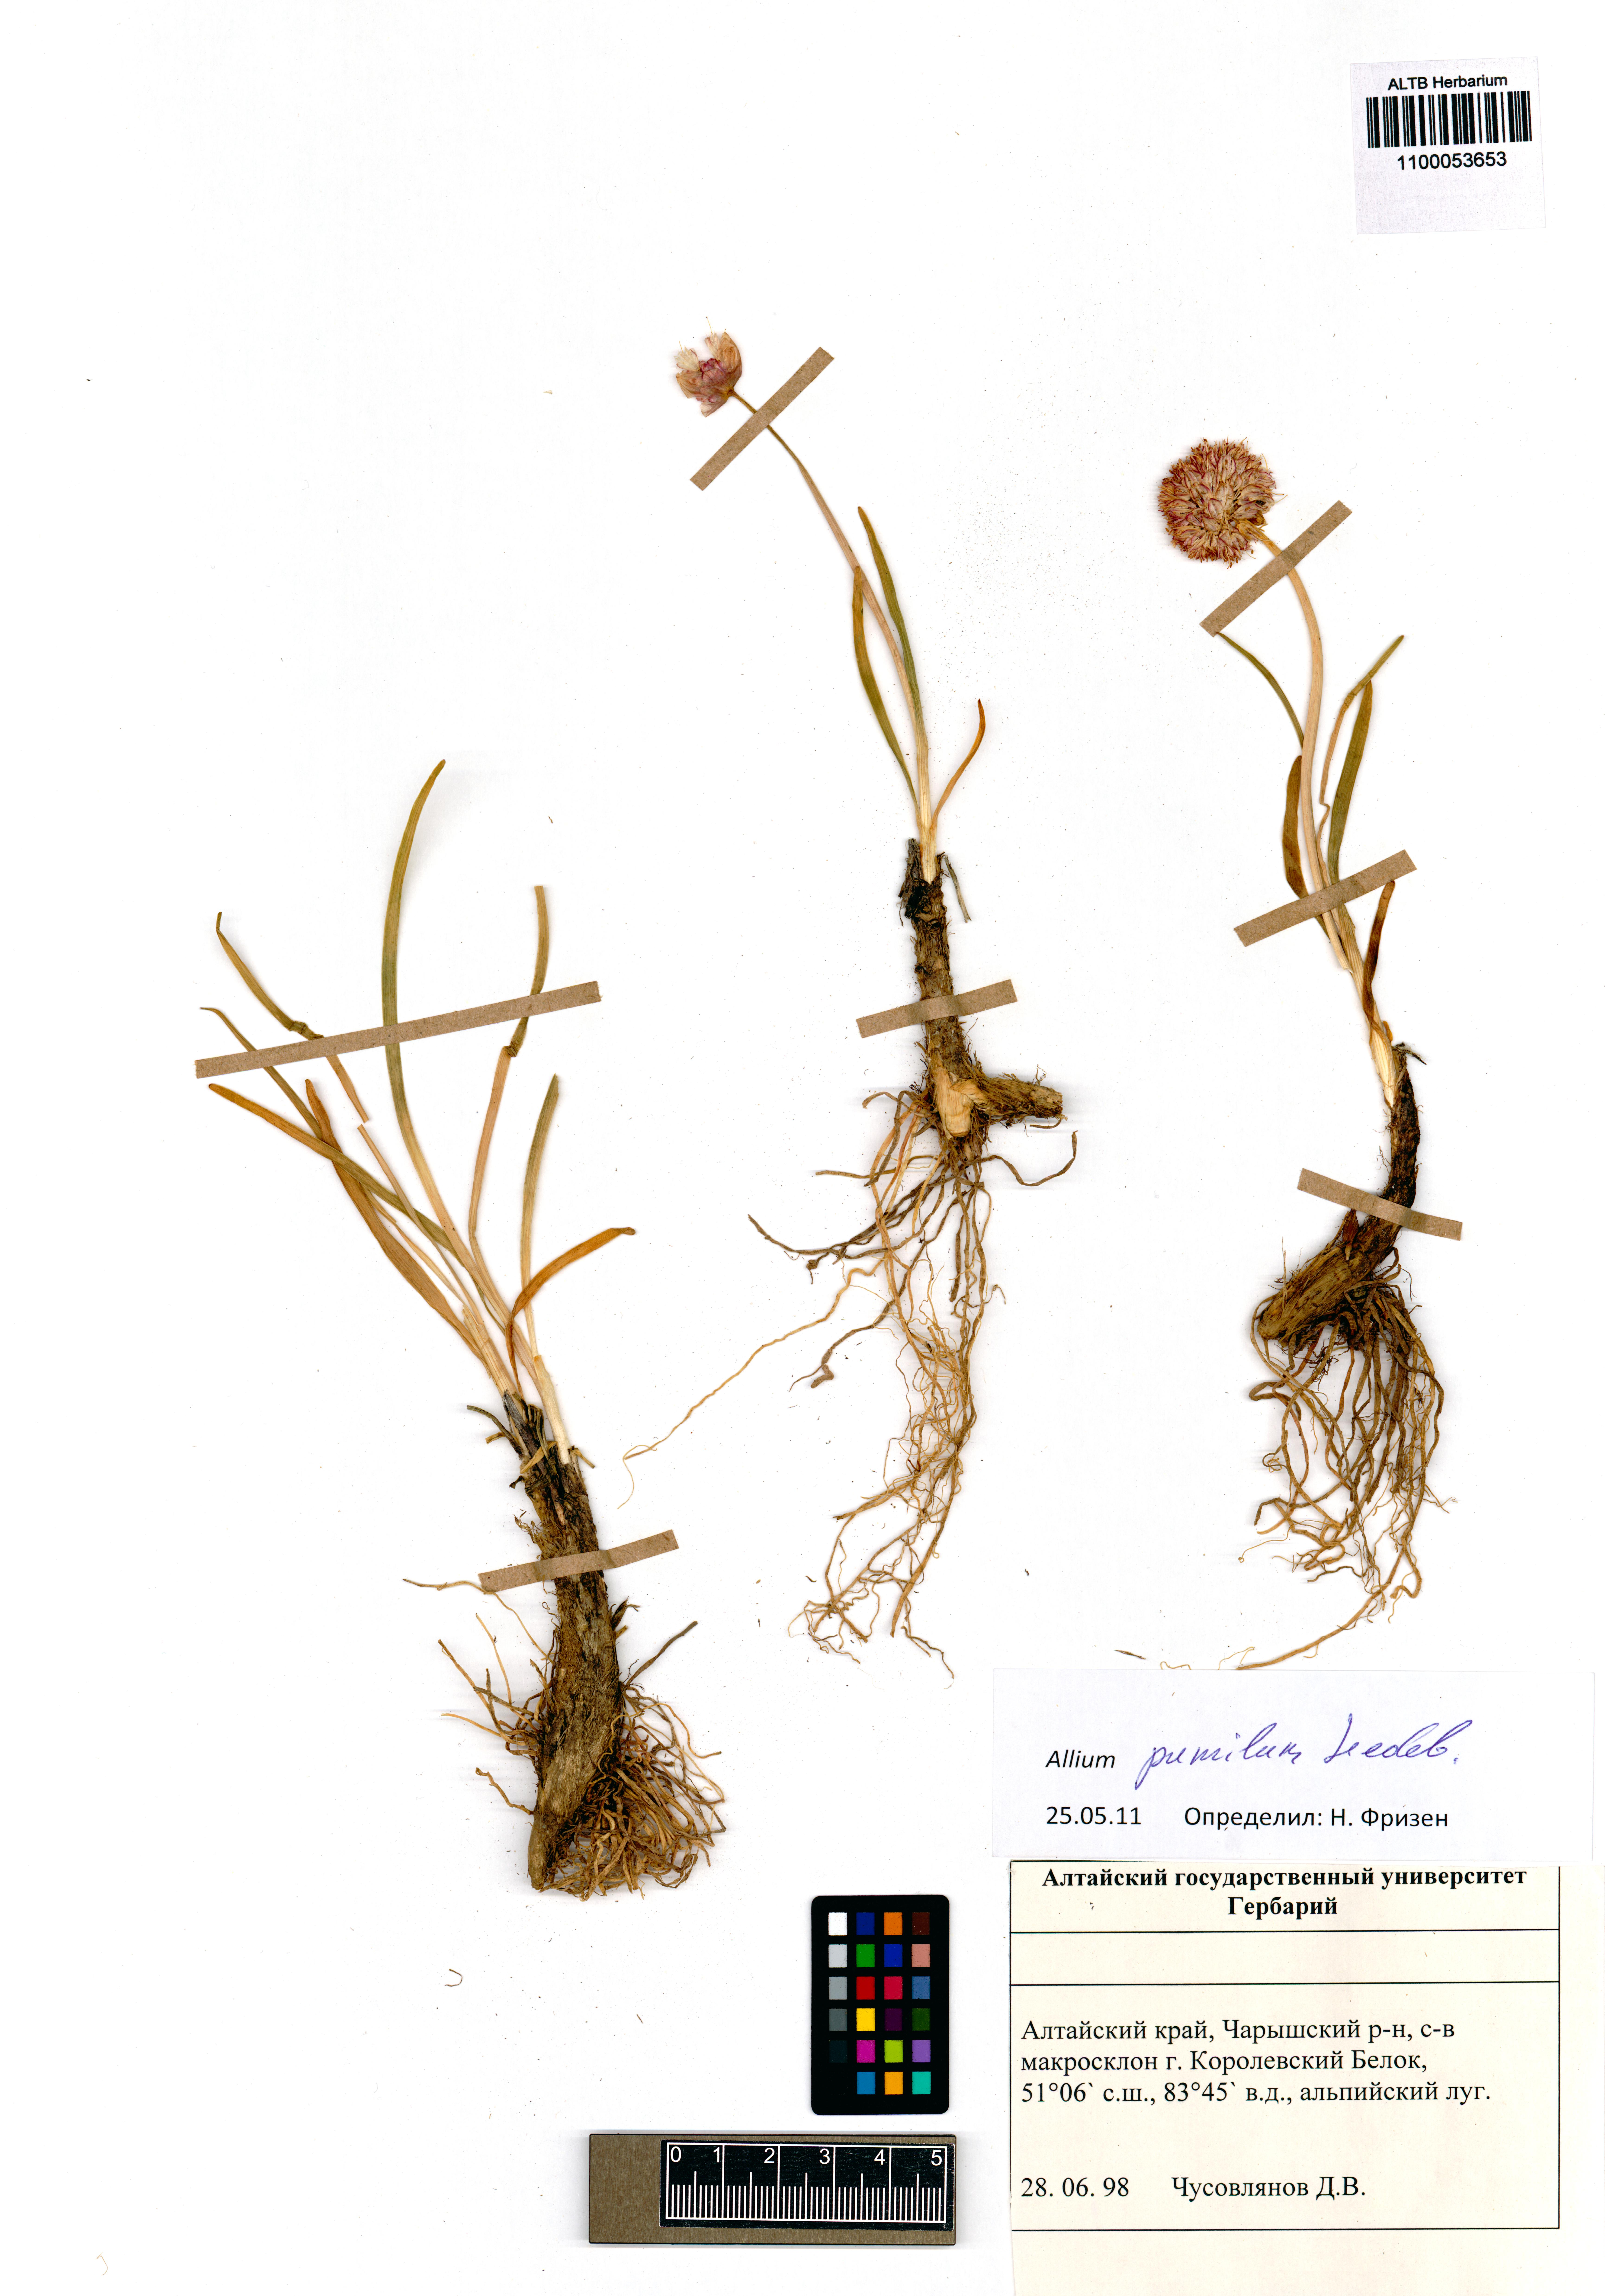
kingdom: Plantae
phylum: Tracheophyta
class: Liliopsida
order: Asparagales
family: Amaryllidaceae
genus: Allium
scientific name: Allium pumilum
